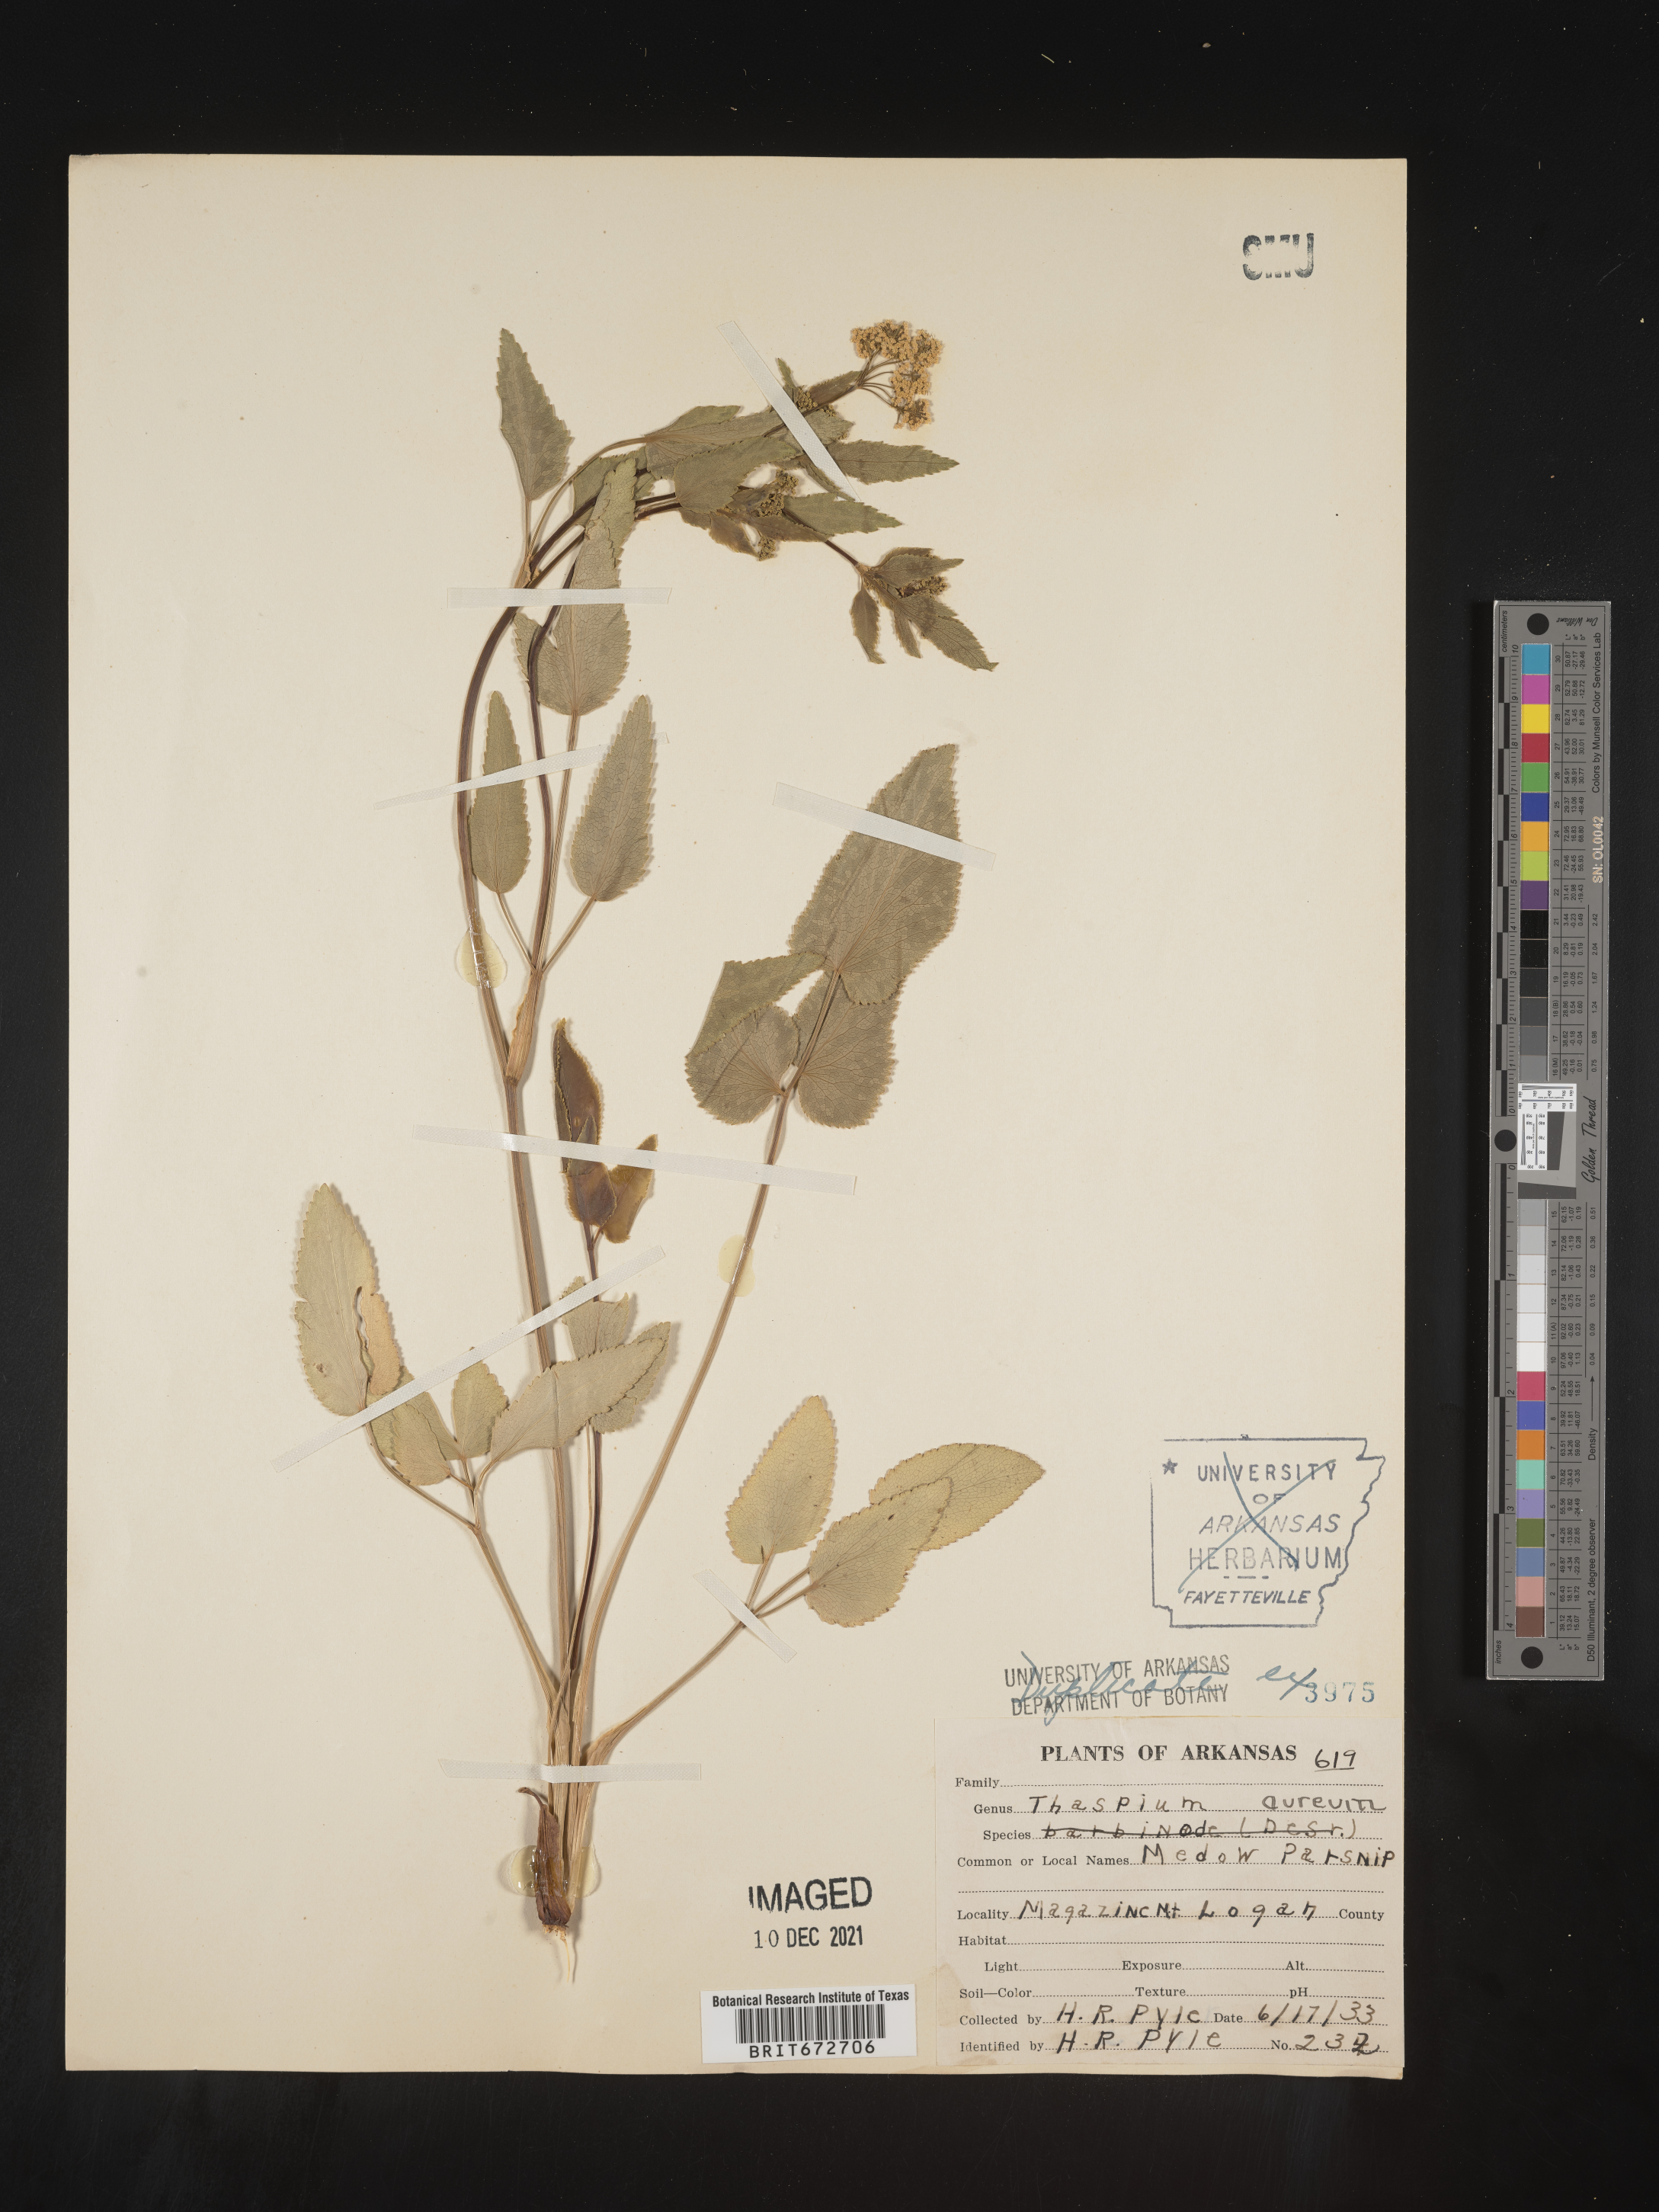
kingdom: Plantae
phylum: Tracheophyta
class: Magnoliopsida
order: Apiales
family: Apiaceae
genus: Thaspium
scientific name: Thaspium
